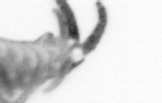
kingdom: Animalia
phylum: Annelida
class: Polychaeta
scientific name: Polychaeta
